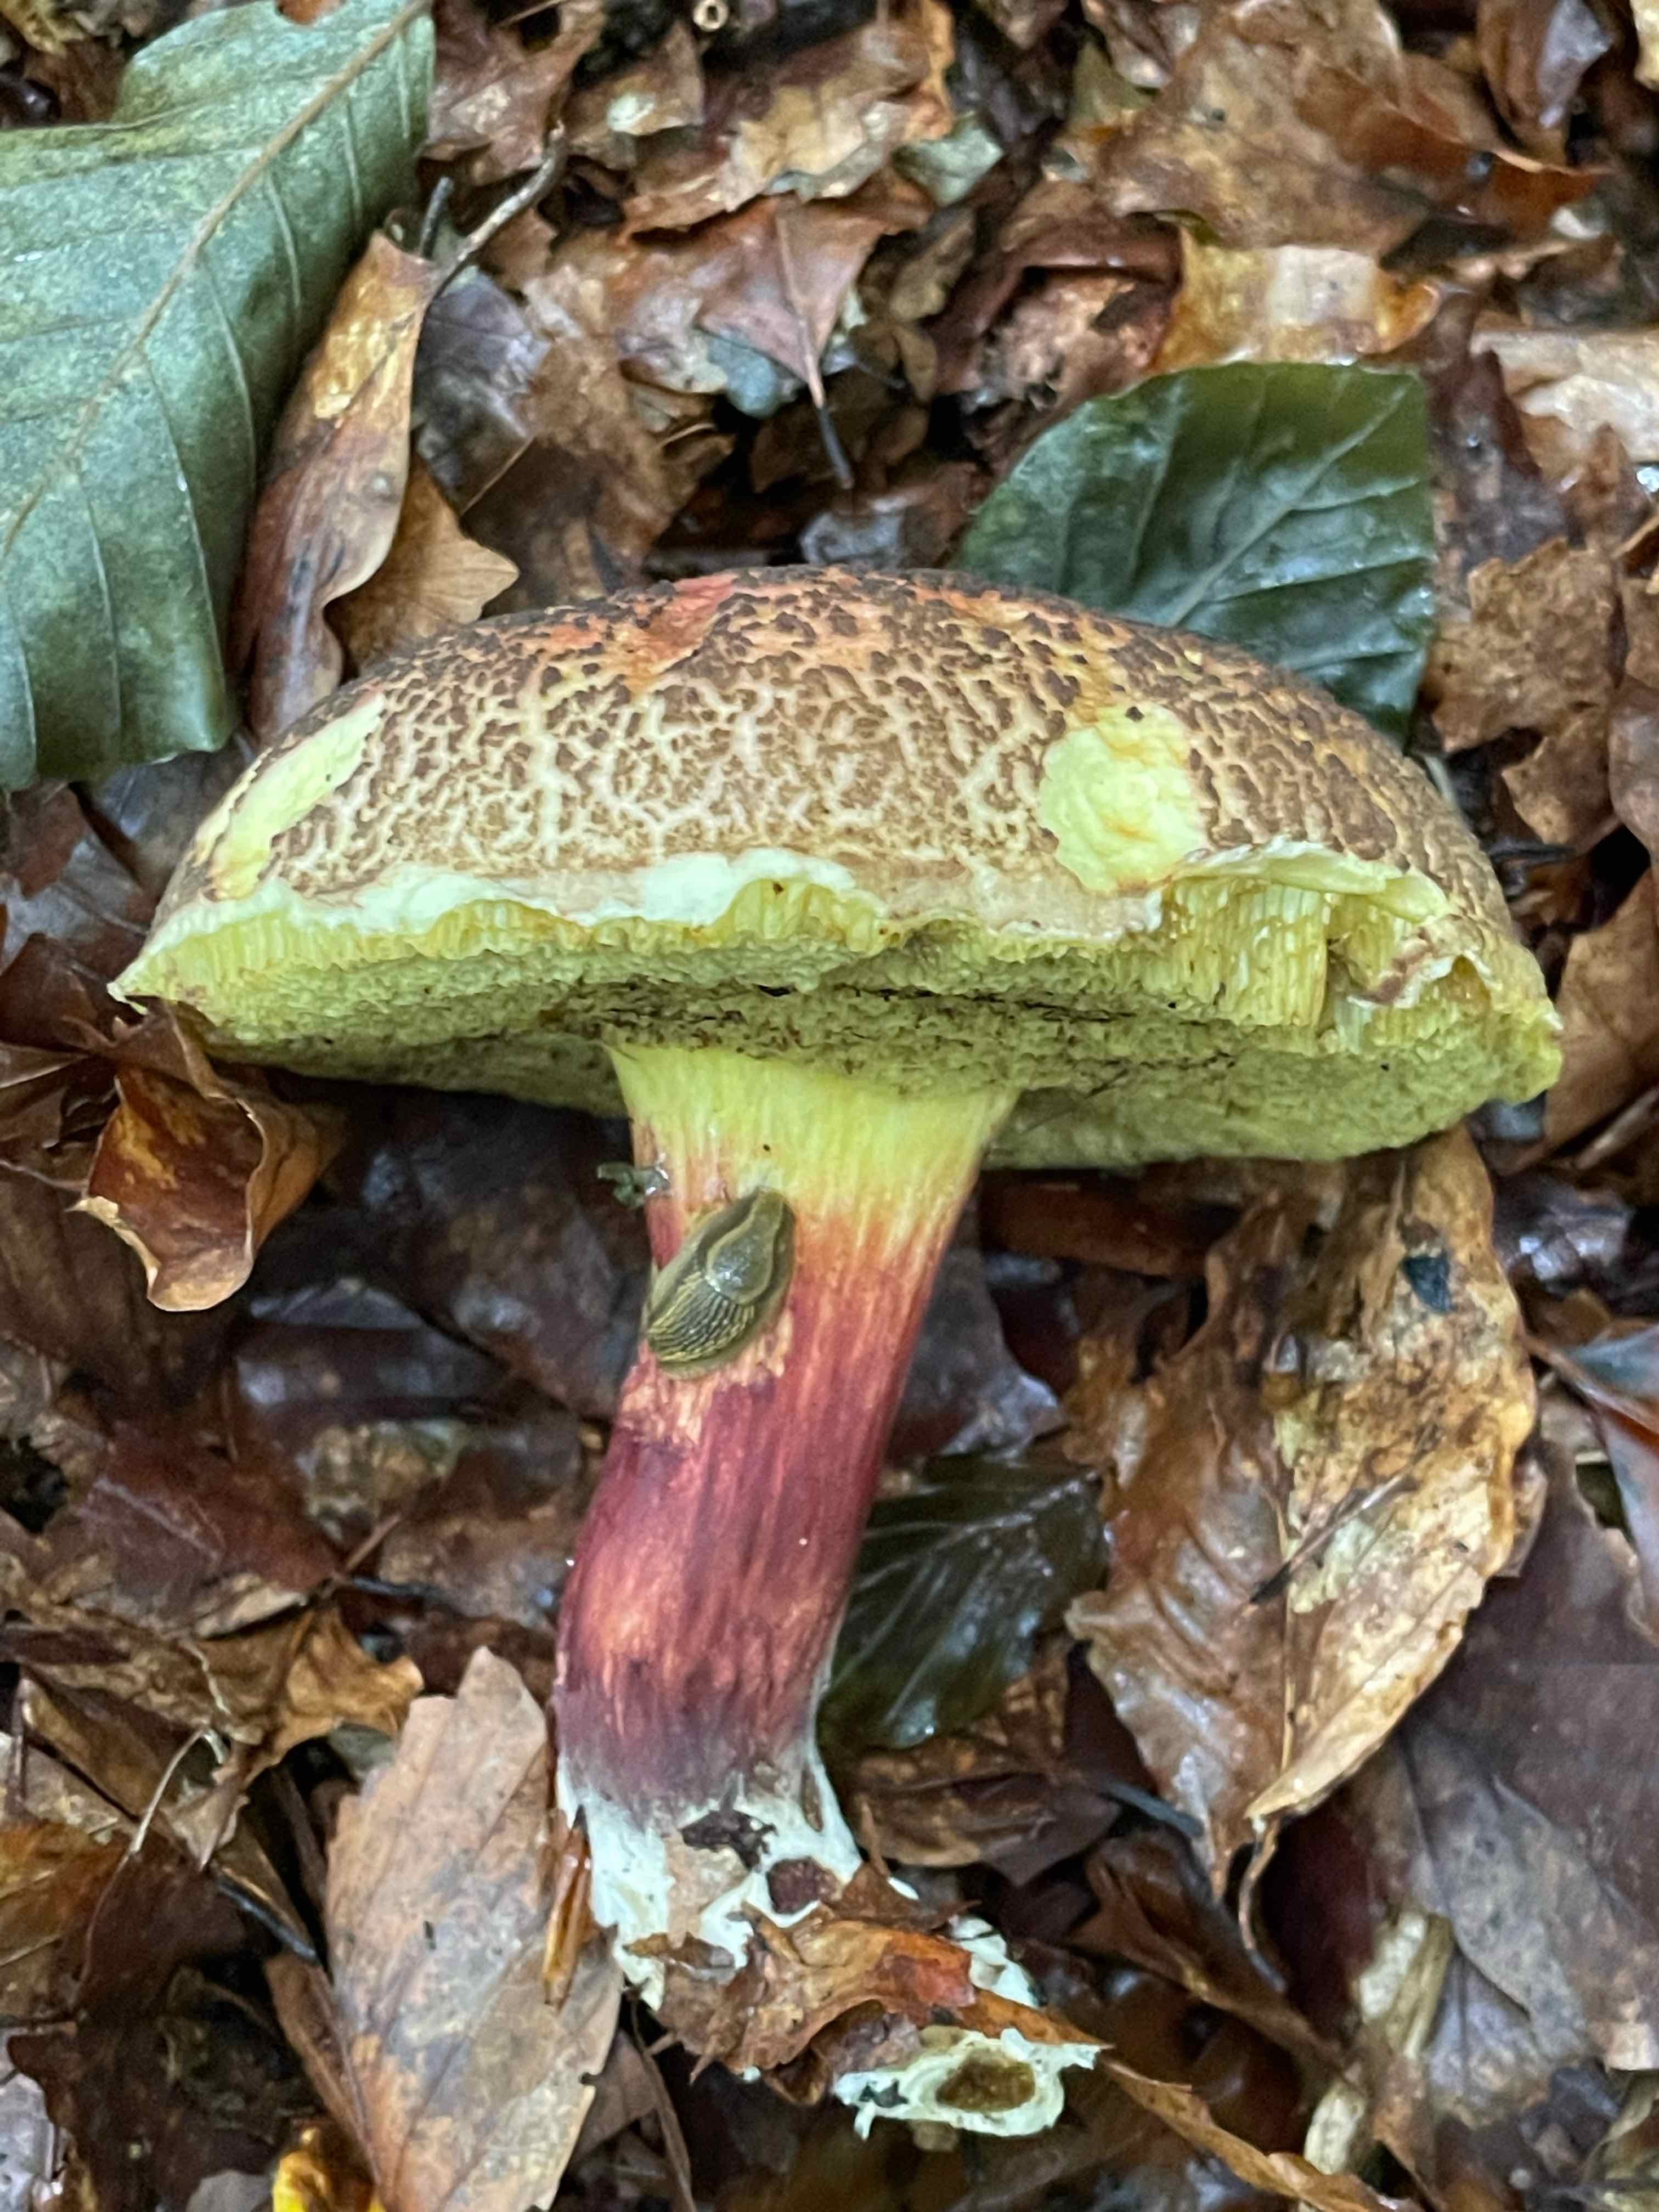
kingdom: Fungi
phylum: Basidiomycota
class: Agaricomycetes
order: Boletales
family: Boletaceae
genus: Xerocomellus
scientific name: Xerocomellus chrysenteron
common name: rødsprukken rørhat
